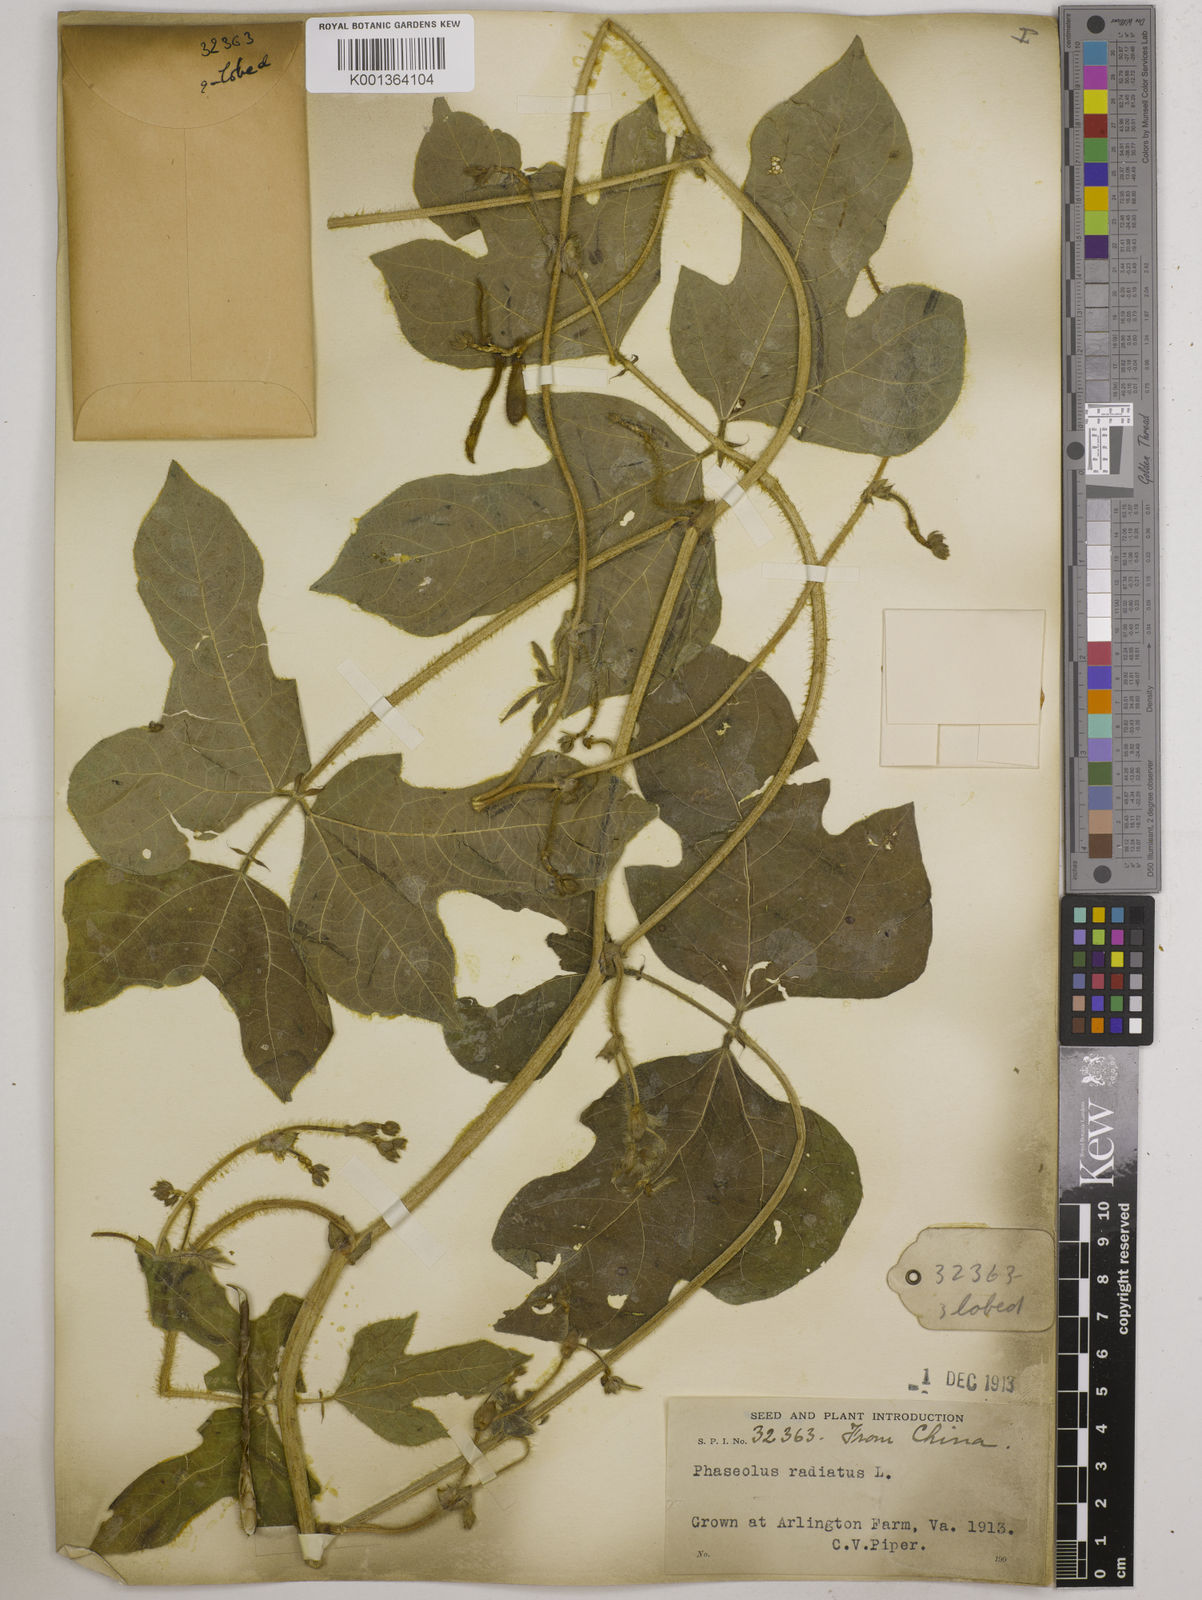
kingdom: Plantae
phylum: Tracheophyta
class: Magnoliopsida
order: Fabales
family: Fabaceae
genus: Vigna
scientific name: Vigna radiata
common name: Mung-bean
